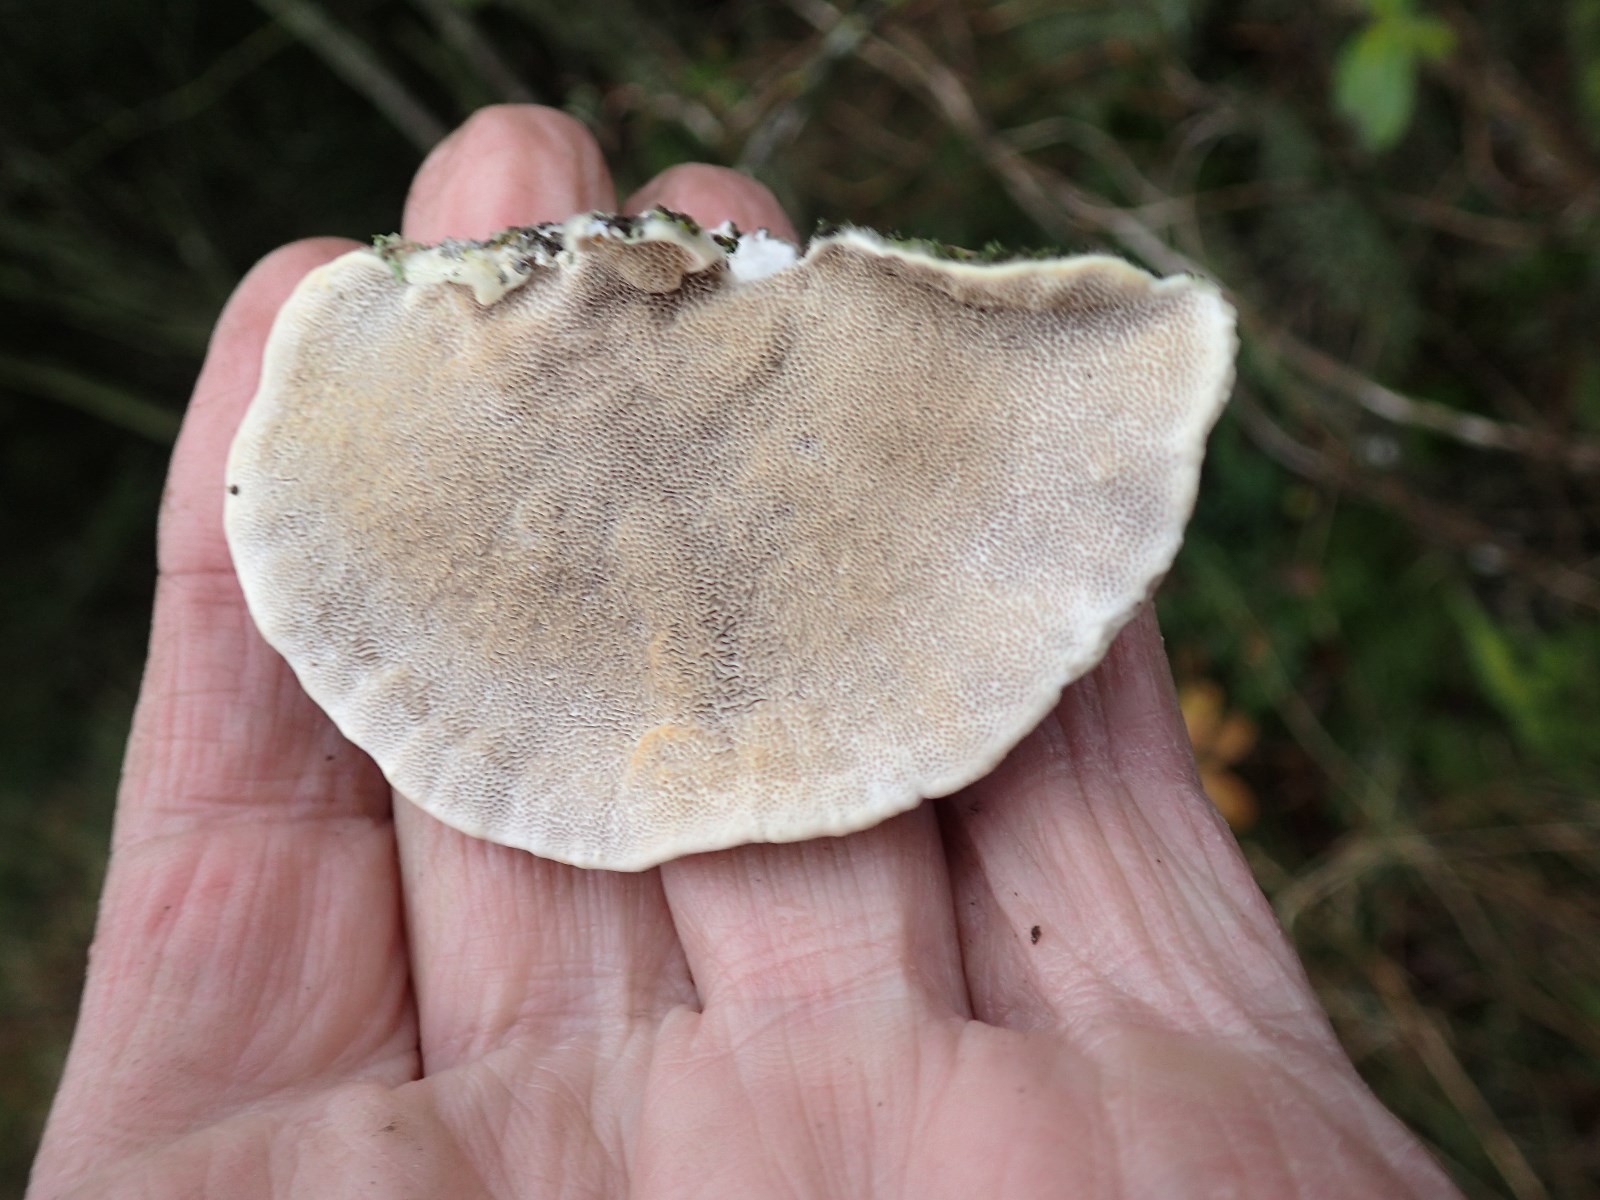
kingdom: Fungi
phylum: Basidiomycota
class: Agaricomycetes
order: Polyporales
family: Polyporaceae
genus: Trametes
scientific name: Trametes hirsuta
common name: håret læderporesvamp
